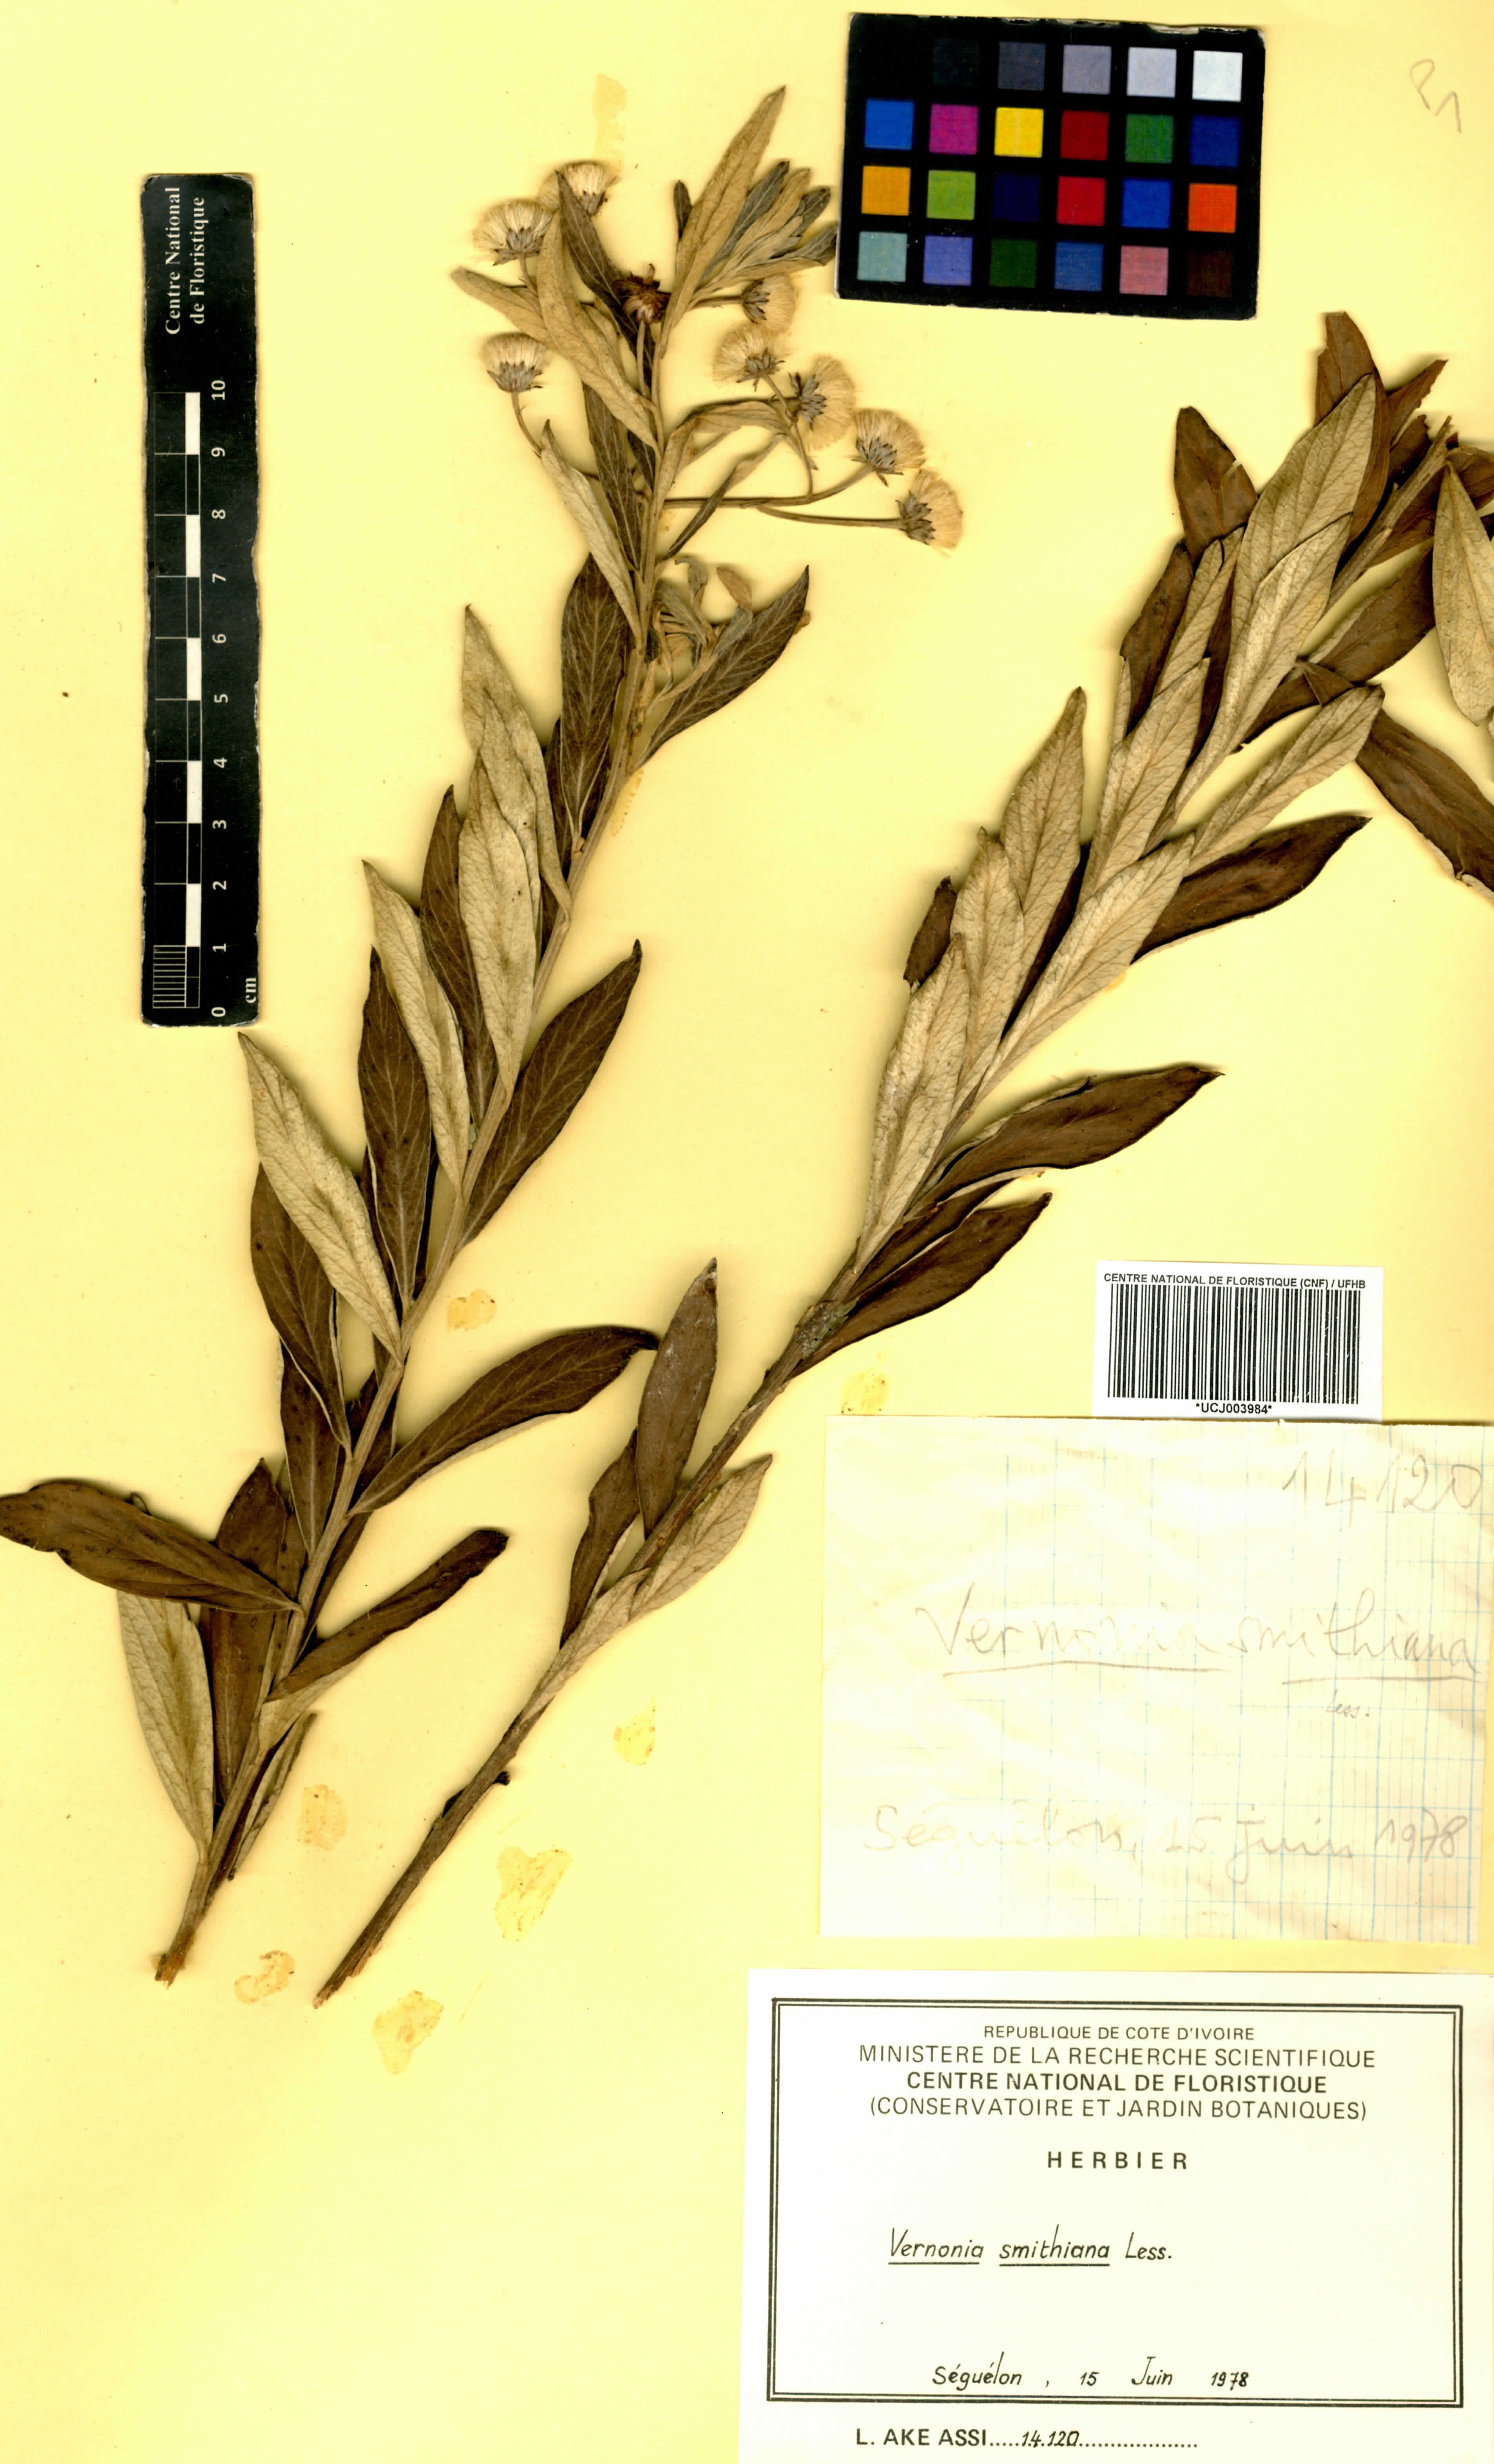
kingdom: Plantae
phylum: Tracheophyta
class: Magnoliopsida
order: Asterales
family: Asteraceae
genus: Hilliardiella
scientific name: Hilliardiella smithiana
